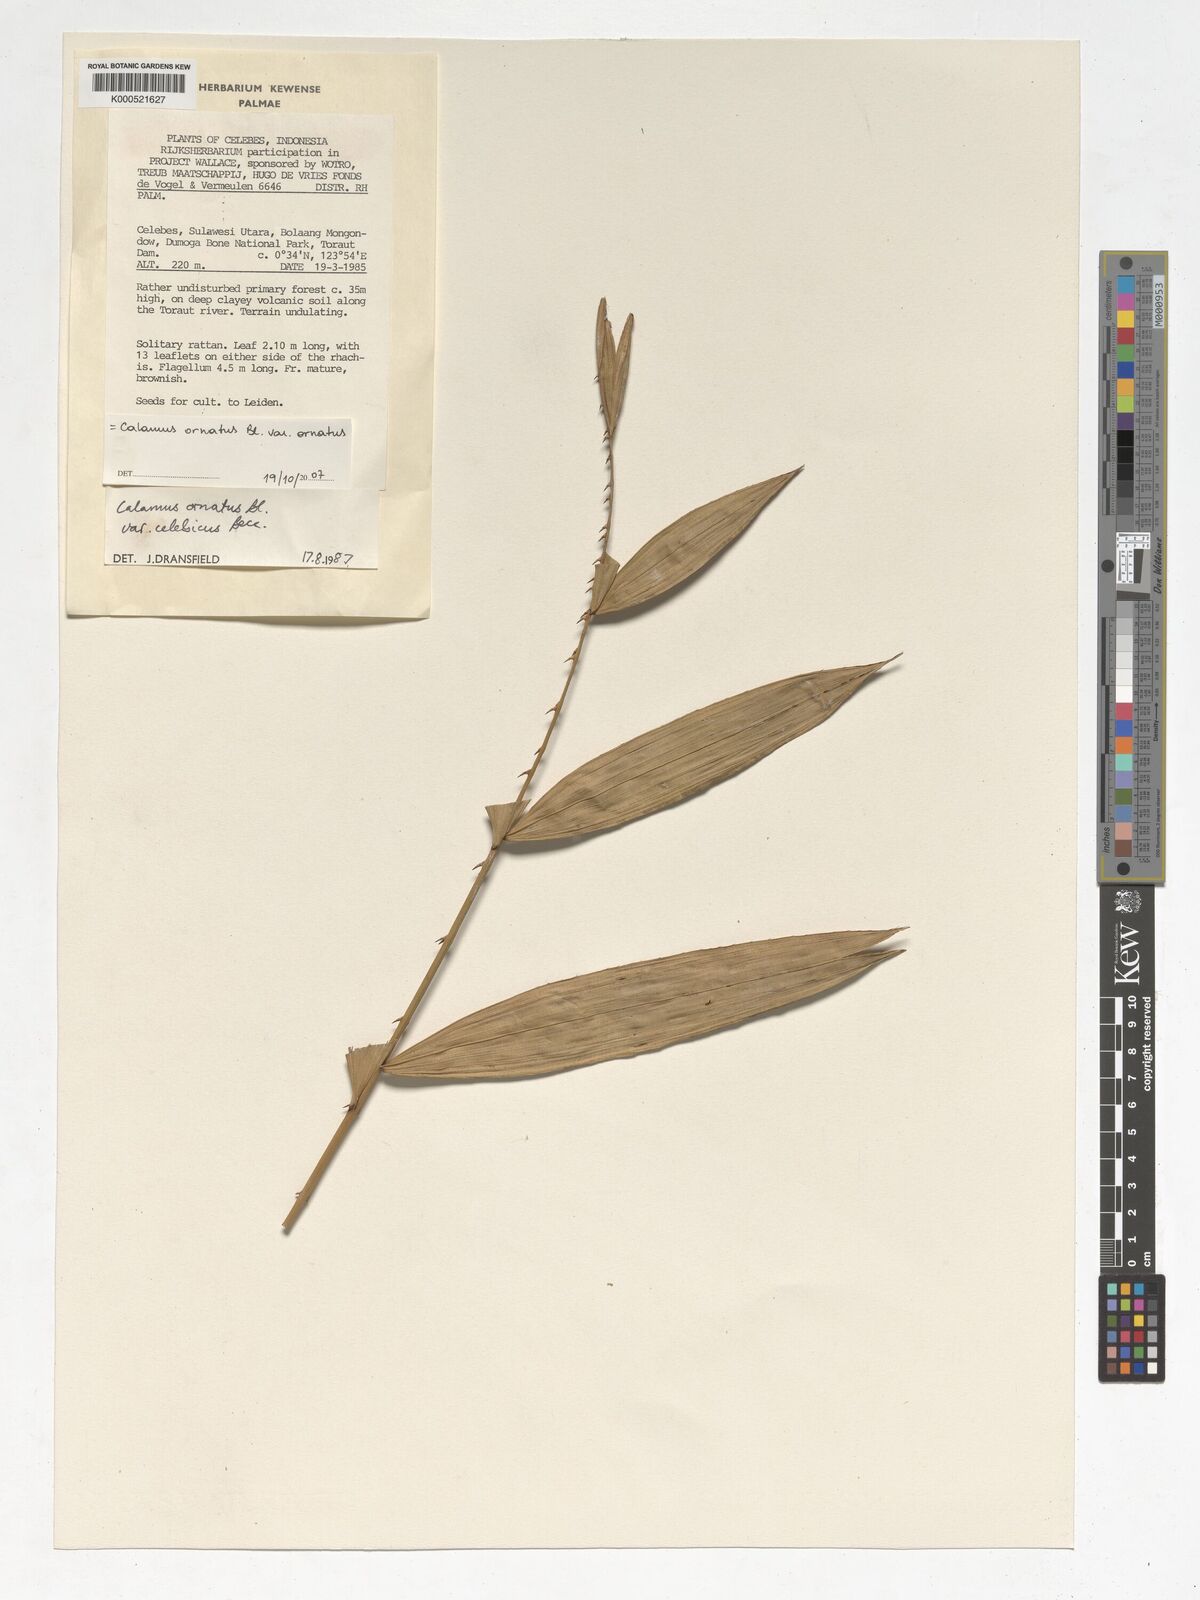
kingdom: Plantae
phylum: Tracheophyta
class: Liliopsida
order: Arecales
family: Arecaceae
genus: Calamus
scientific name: Calamus ornatus
